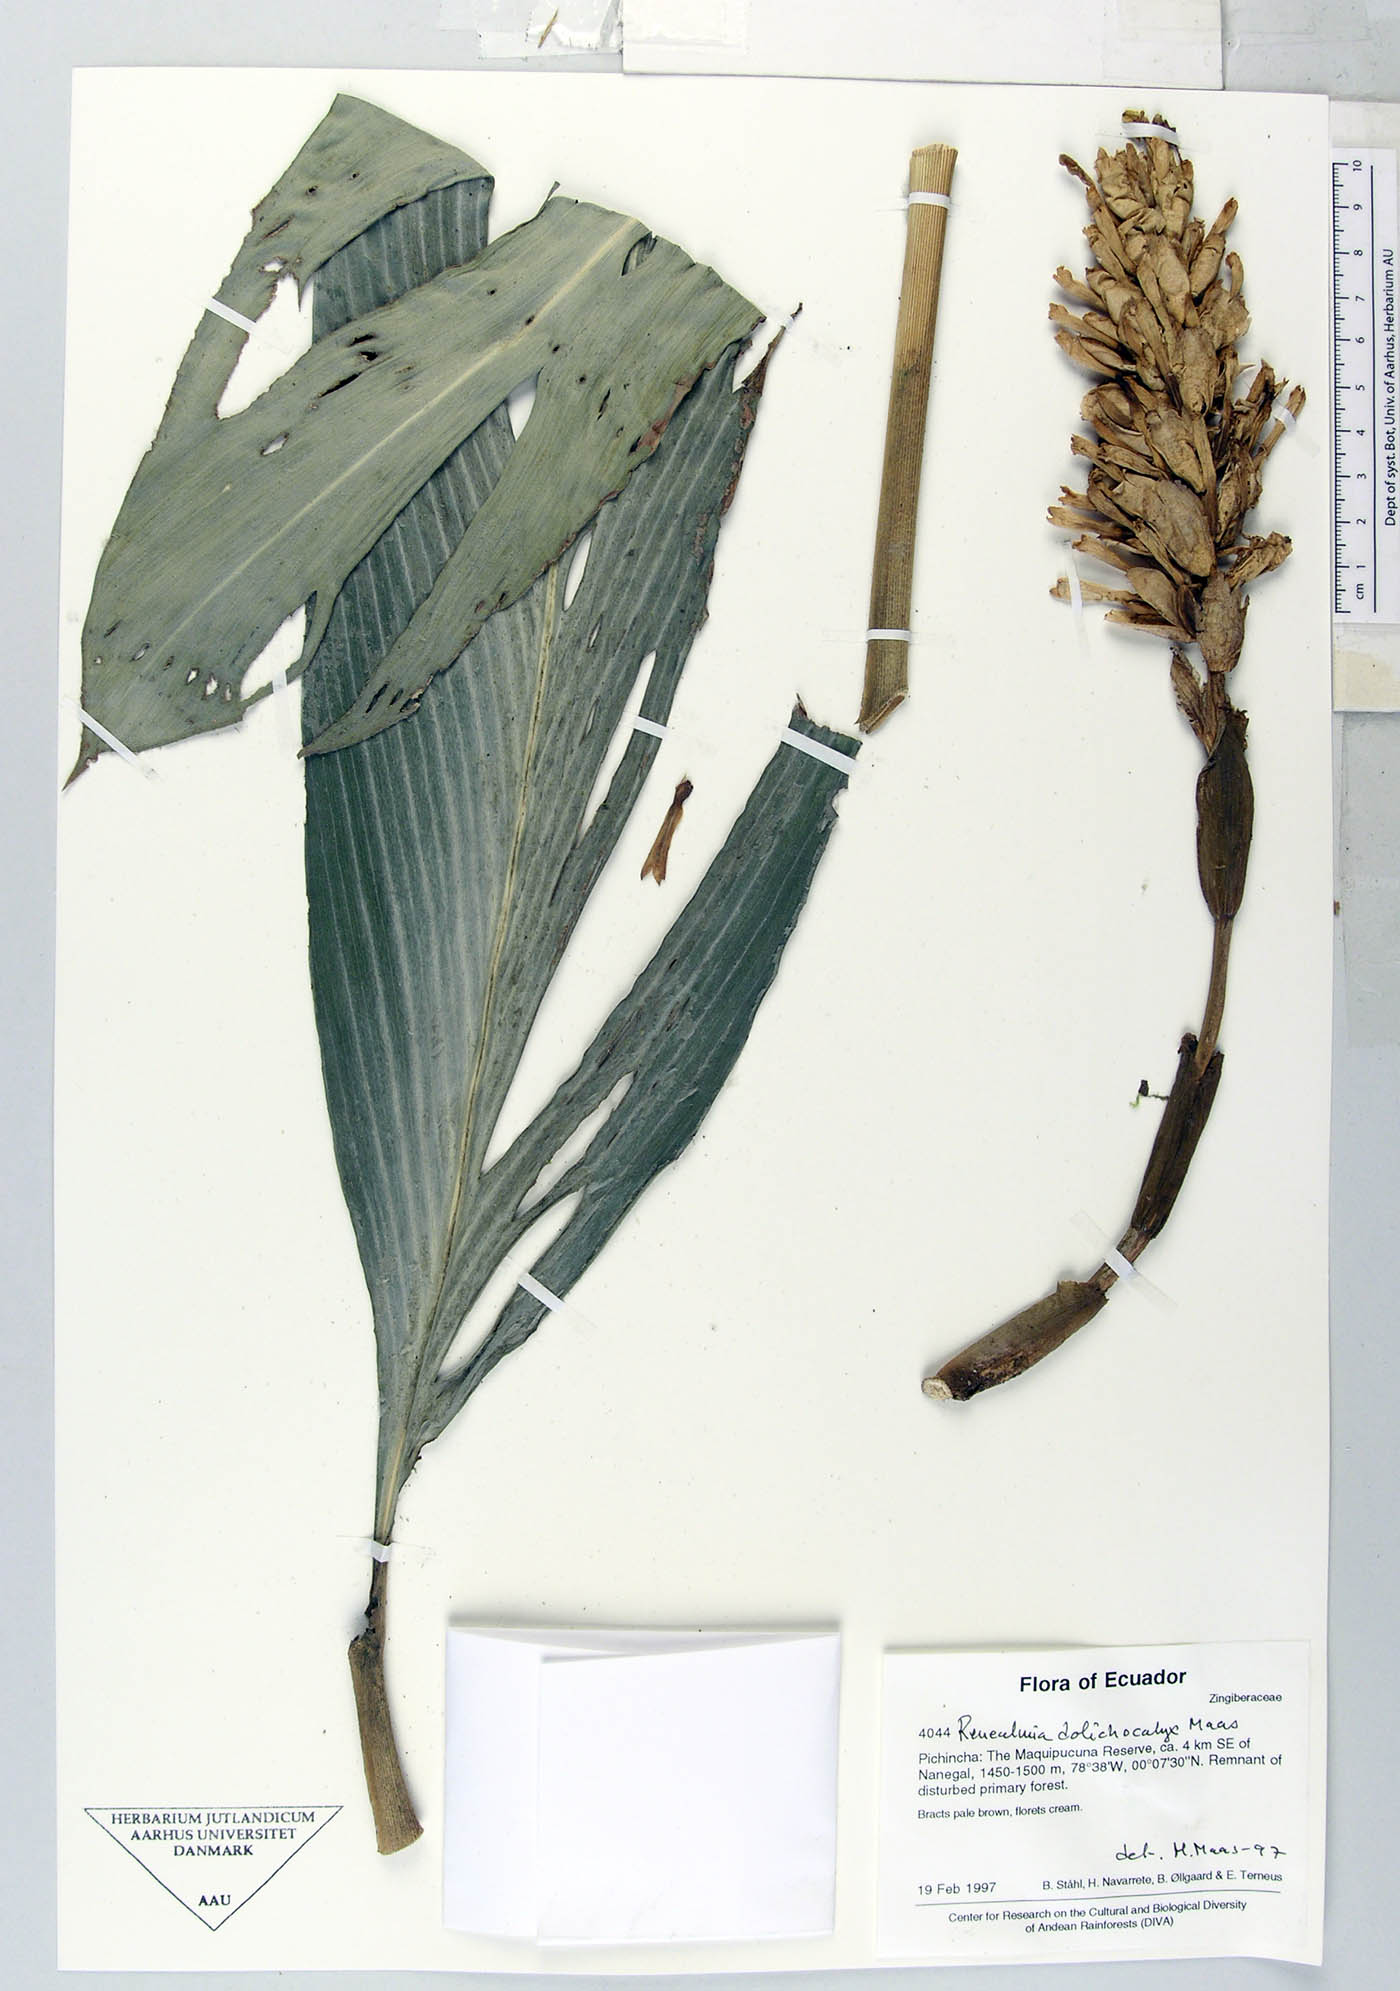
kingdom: Plantae
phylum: Tracheophyta
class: Liliopsida
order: Zingiberales
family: Zingiberaceae
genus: Renealmia
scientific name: Renealmia dolichocalyx
